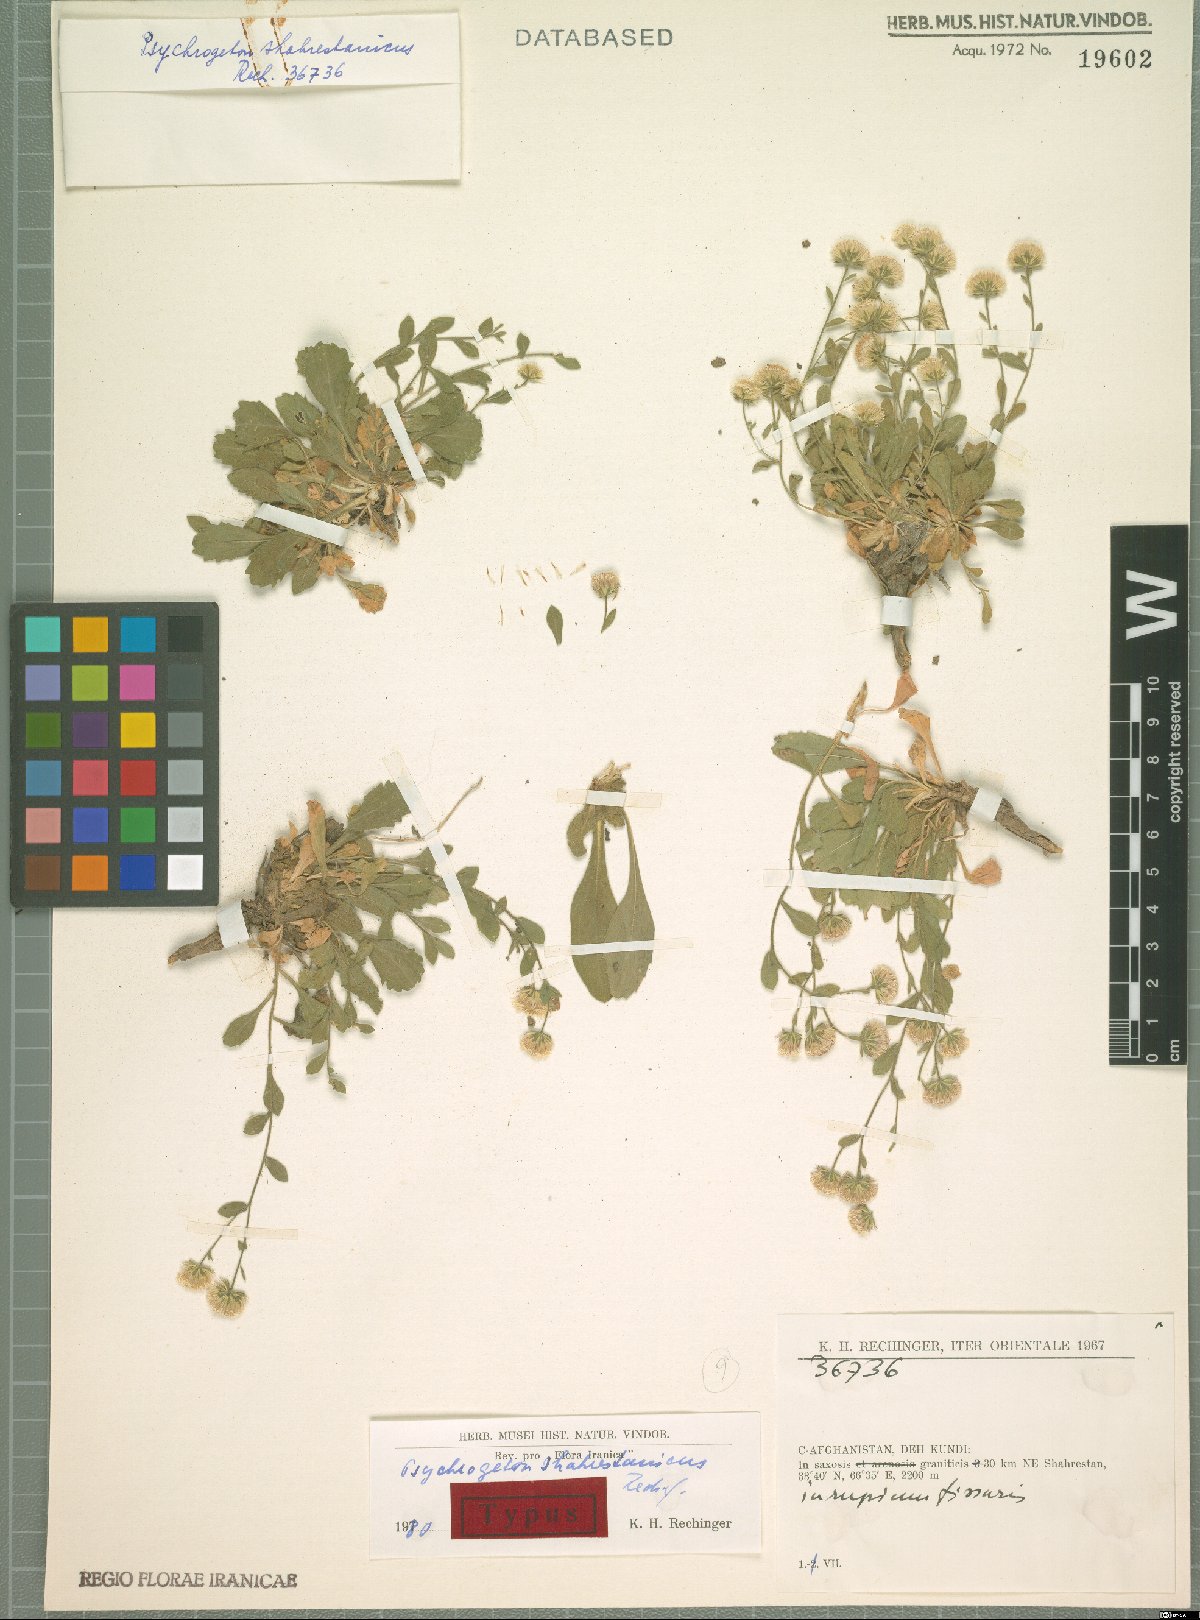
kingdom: Plantae
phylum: Tracheophyta
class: Magnoliopsida
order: Asterales
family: Asteraceae
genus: Psychrogeton
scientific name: Psychrogeton shahrestanicus
